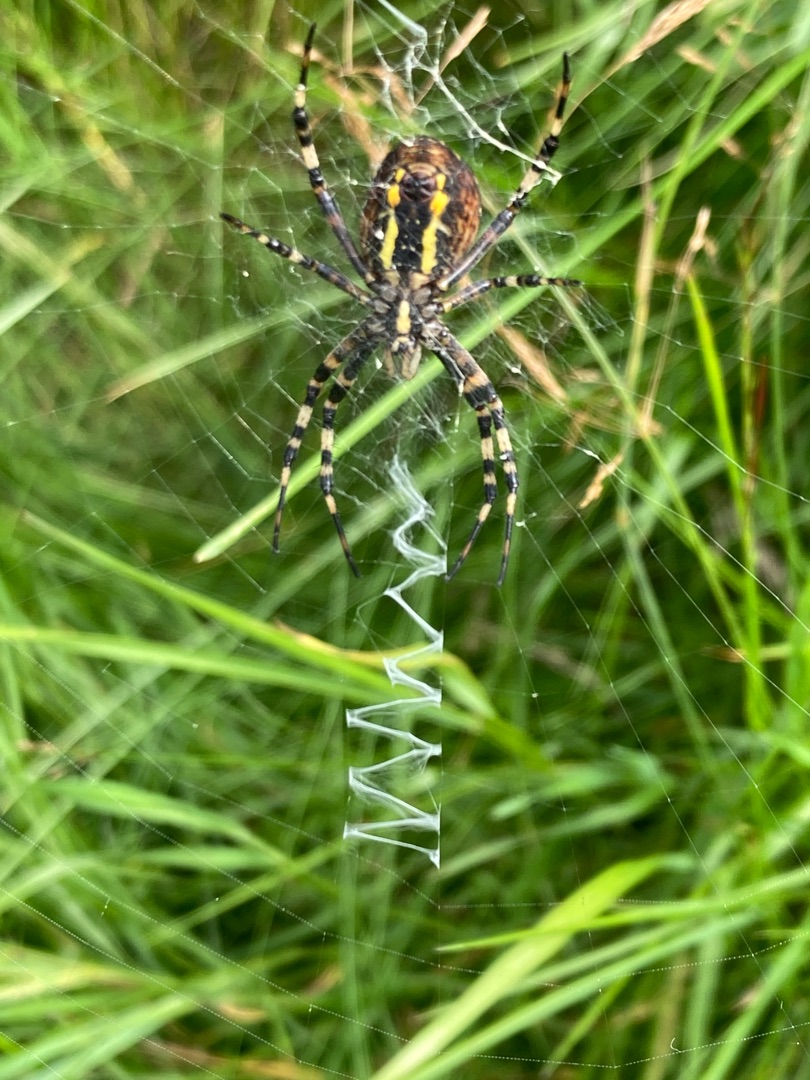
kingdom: Animalia
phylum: Arthropoda
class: Arachnida
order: Araneae
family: Araneidae
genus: Argiope
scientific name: Argiope bruennichi
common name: Hvepseedderkop
